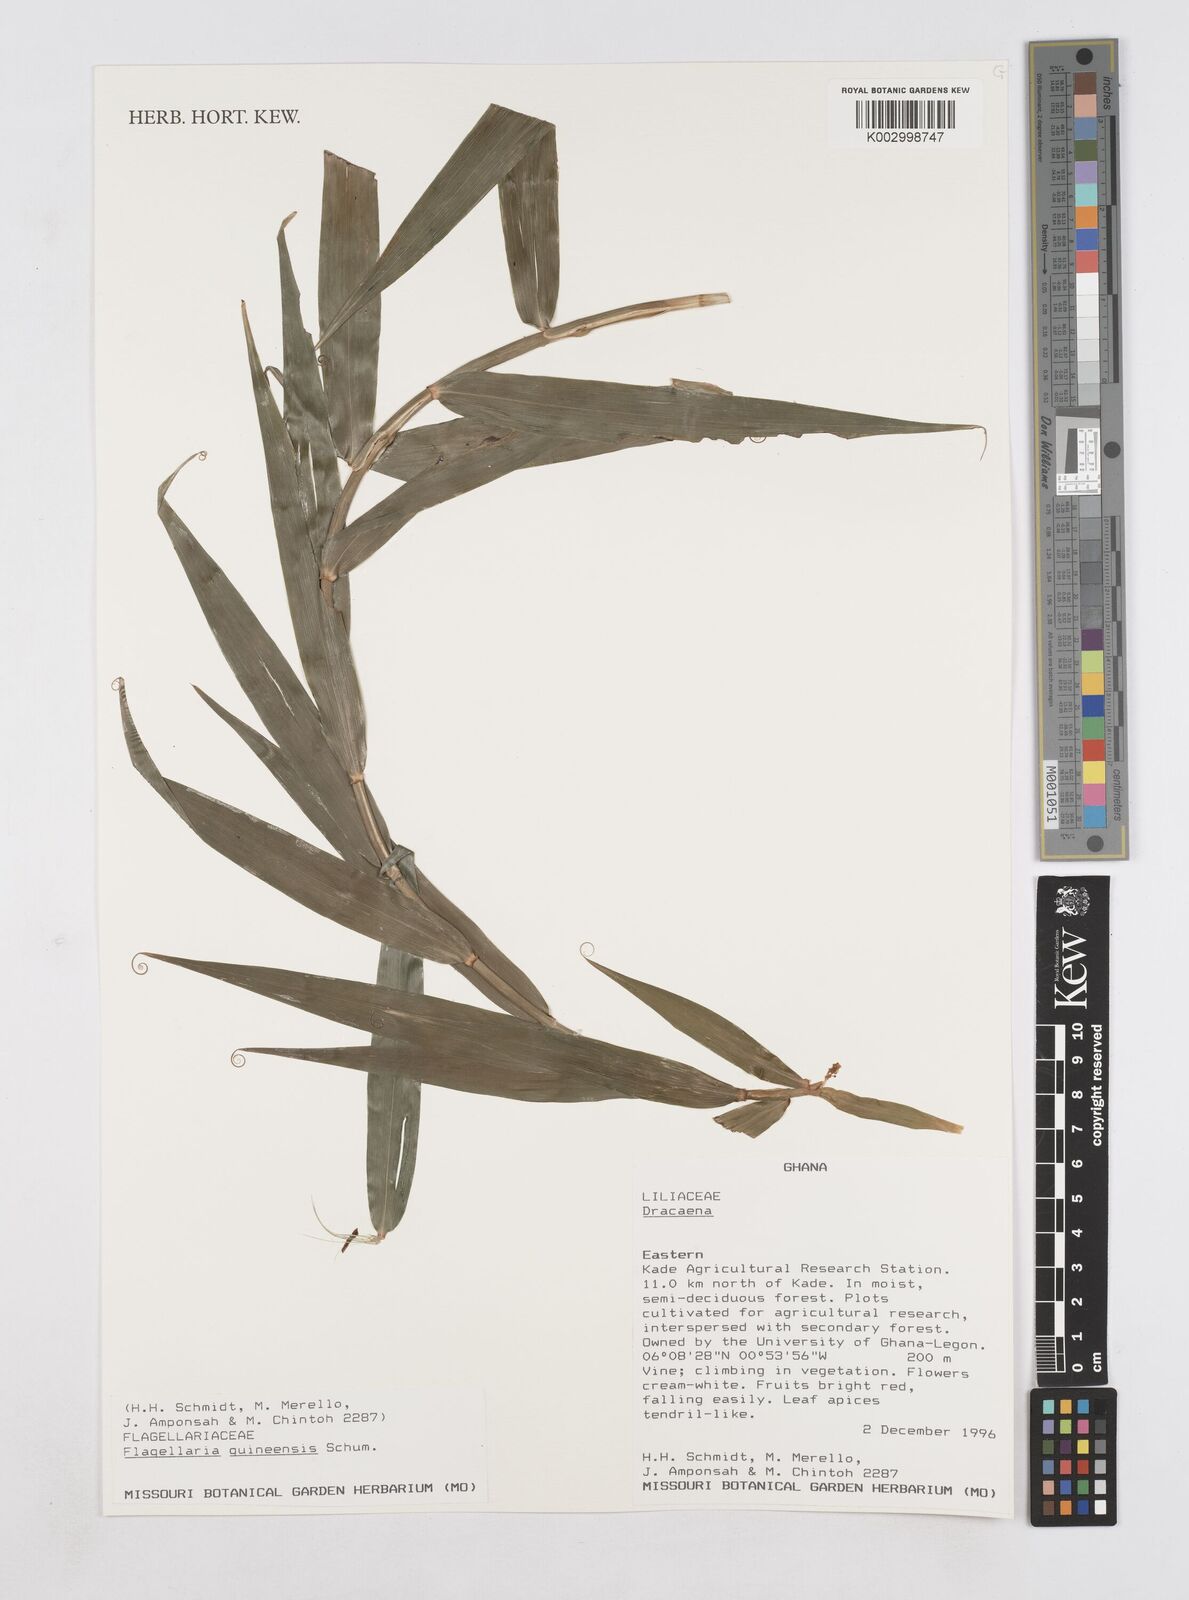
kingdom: Plantae
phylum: Tracheophyta
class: Liliopsida
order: Poales
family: Flagellariaceae
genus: Flagellaria
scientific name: Flagellaria guineensis
